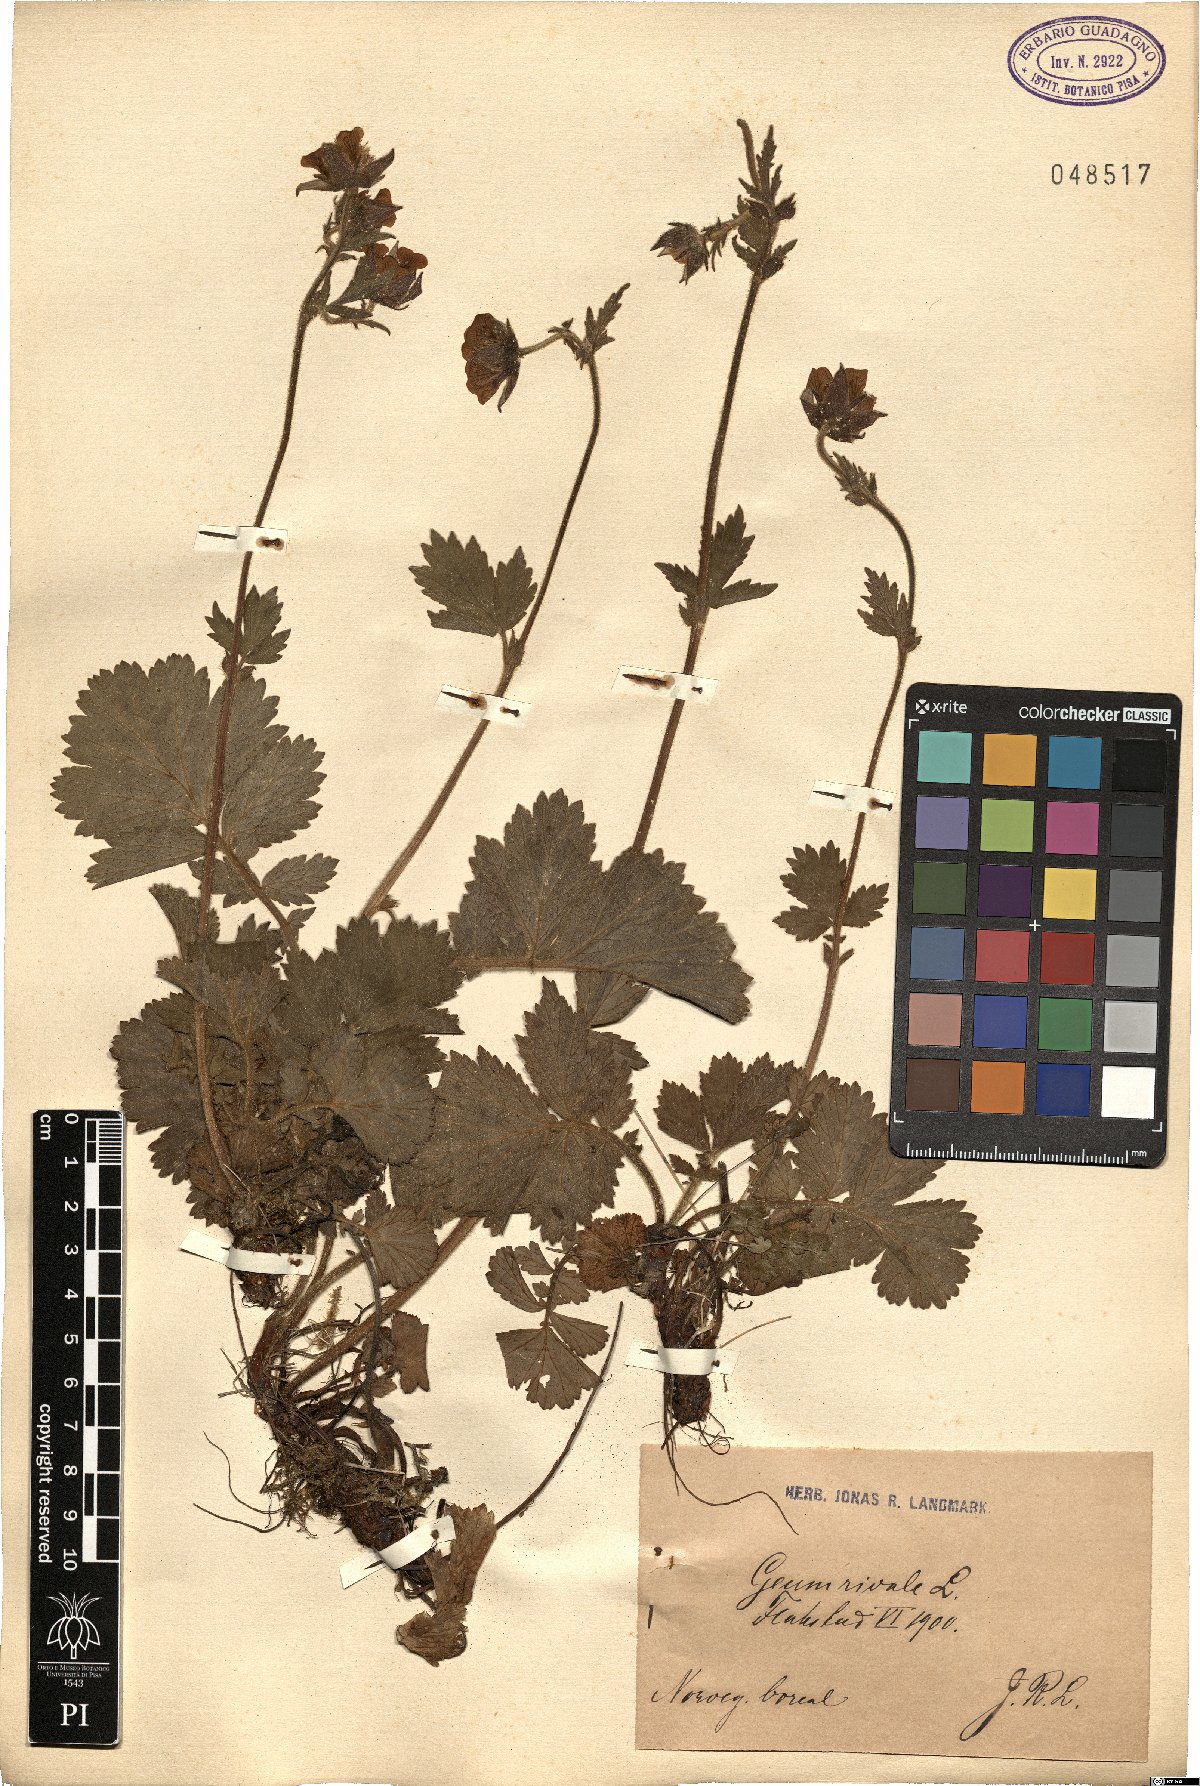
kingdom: Plantae
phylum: Tracheophyta
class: Magnoliopsida
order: Rosales
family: Rosaceae
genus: Geum
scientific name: Geum rivale
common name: Water avens
